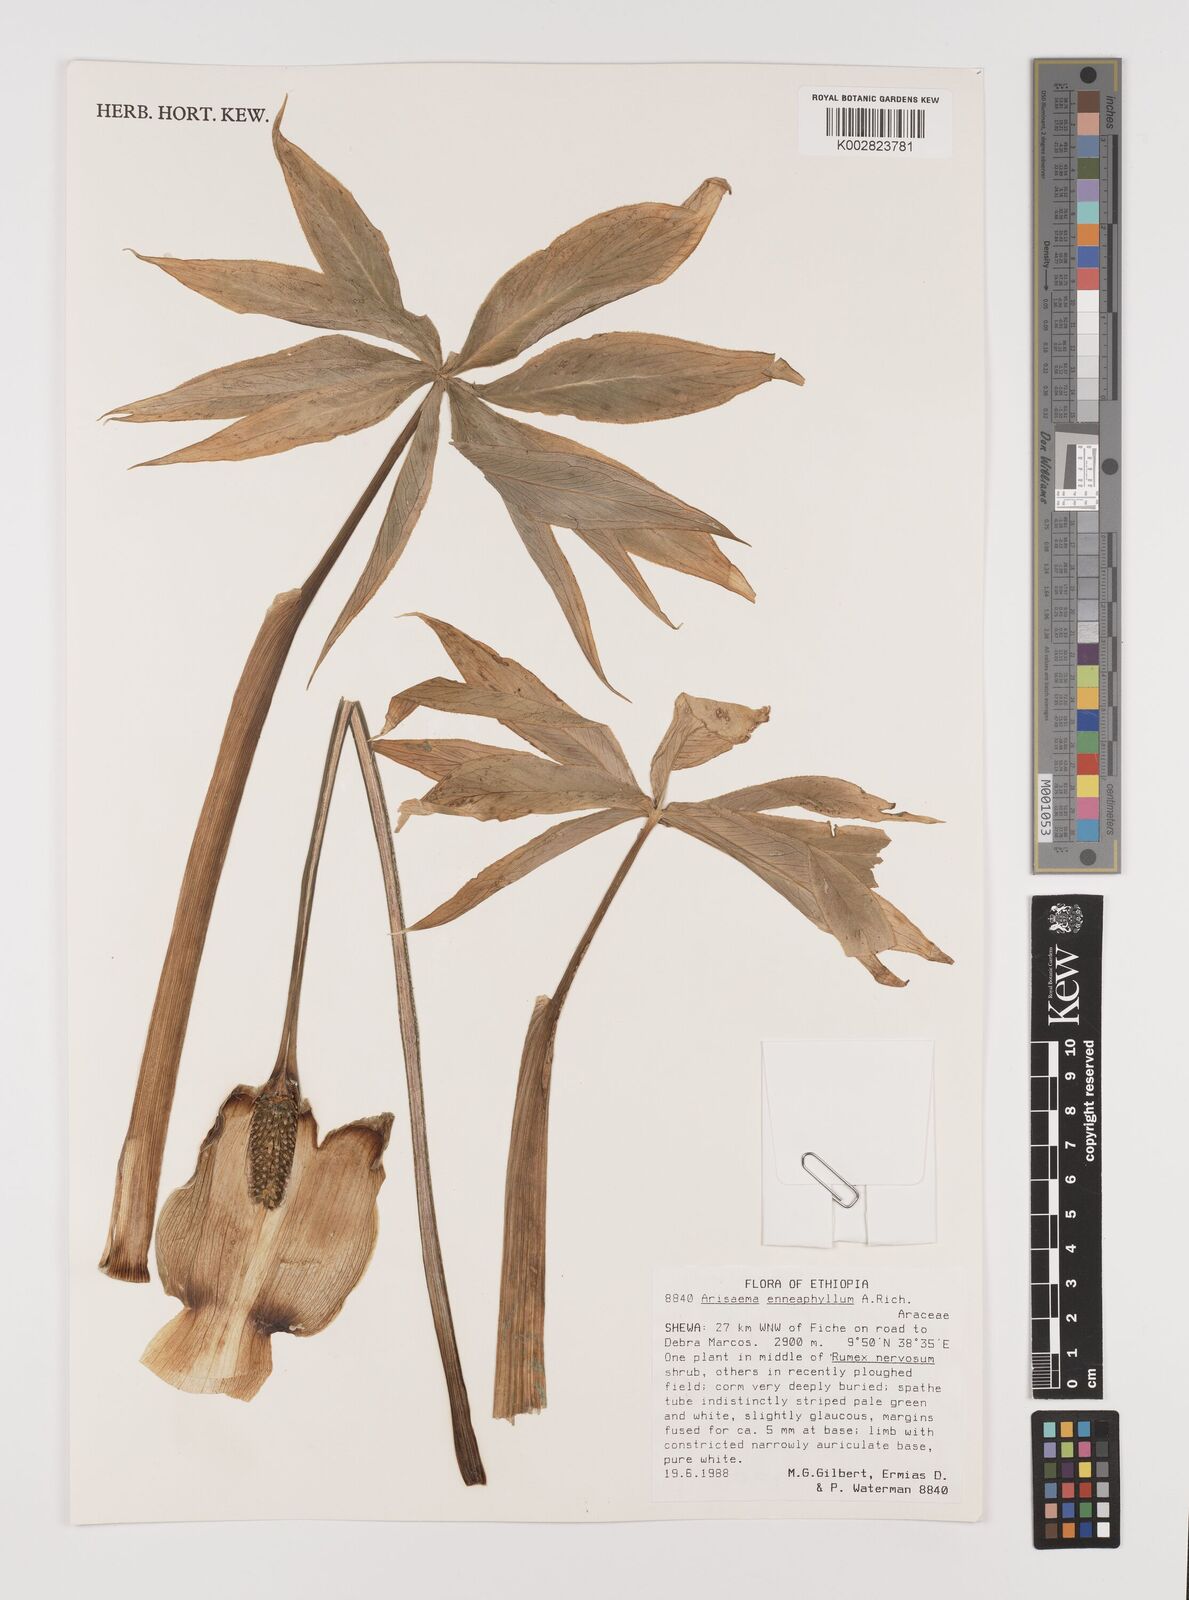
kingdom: Plantae
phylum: Tracheophyta
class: Liliopsida
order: Alismatales
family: Araceae
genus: Arisaema
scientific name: Arisaema enneaphyllum
